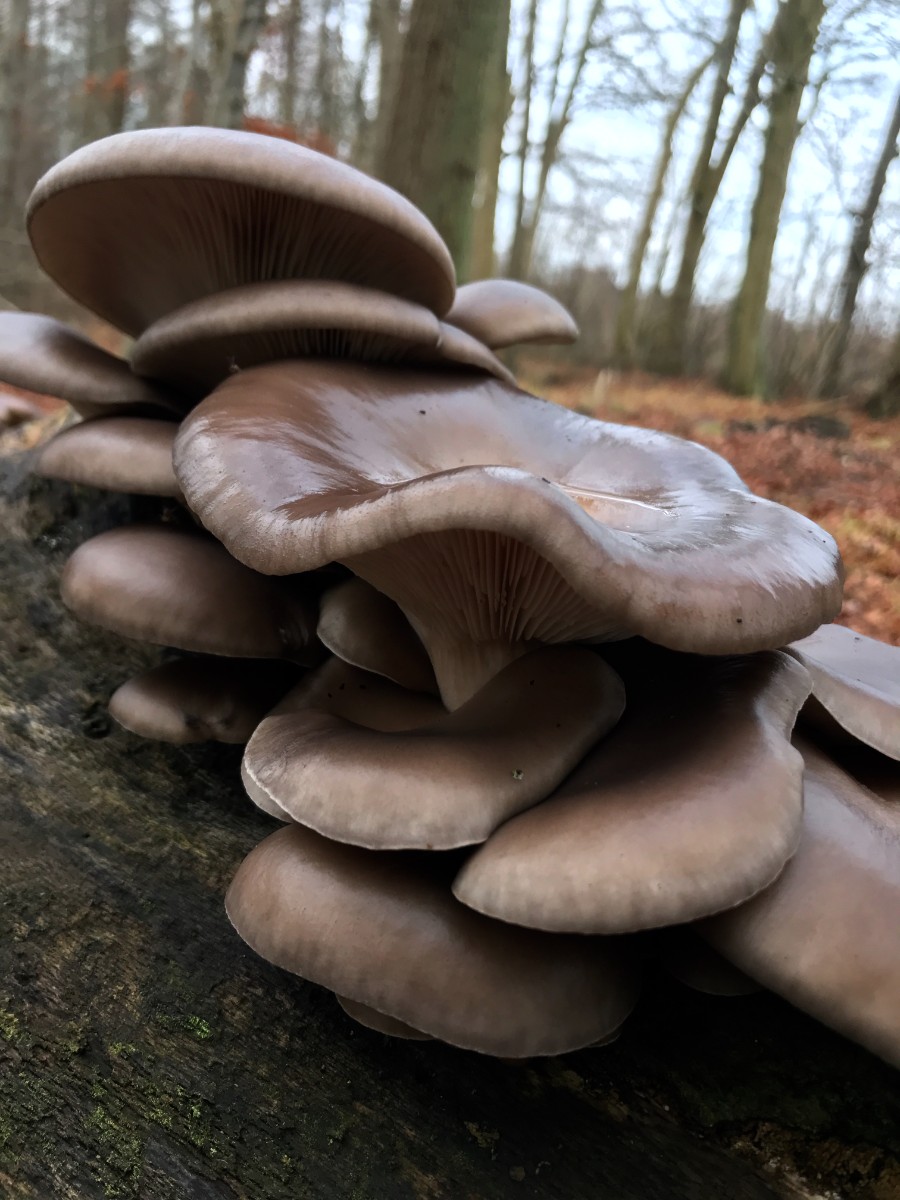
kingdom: Fungi
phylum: Basidiomycota
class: Agaricomycetes
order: Agaricales
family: Pleurotaceae
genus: Pleurotus
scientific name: Pleurotus ostreatus
